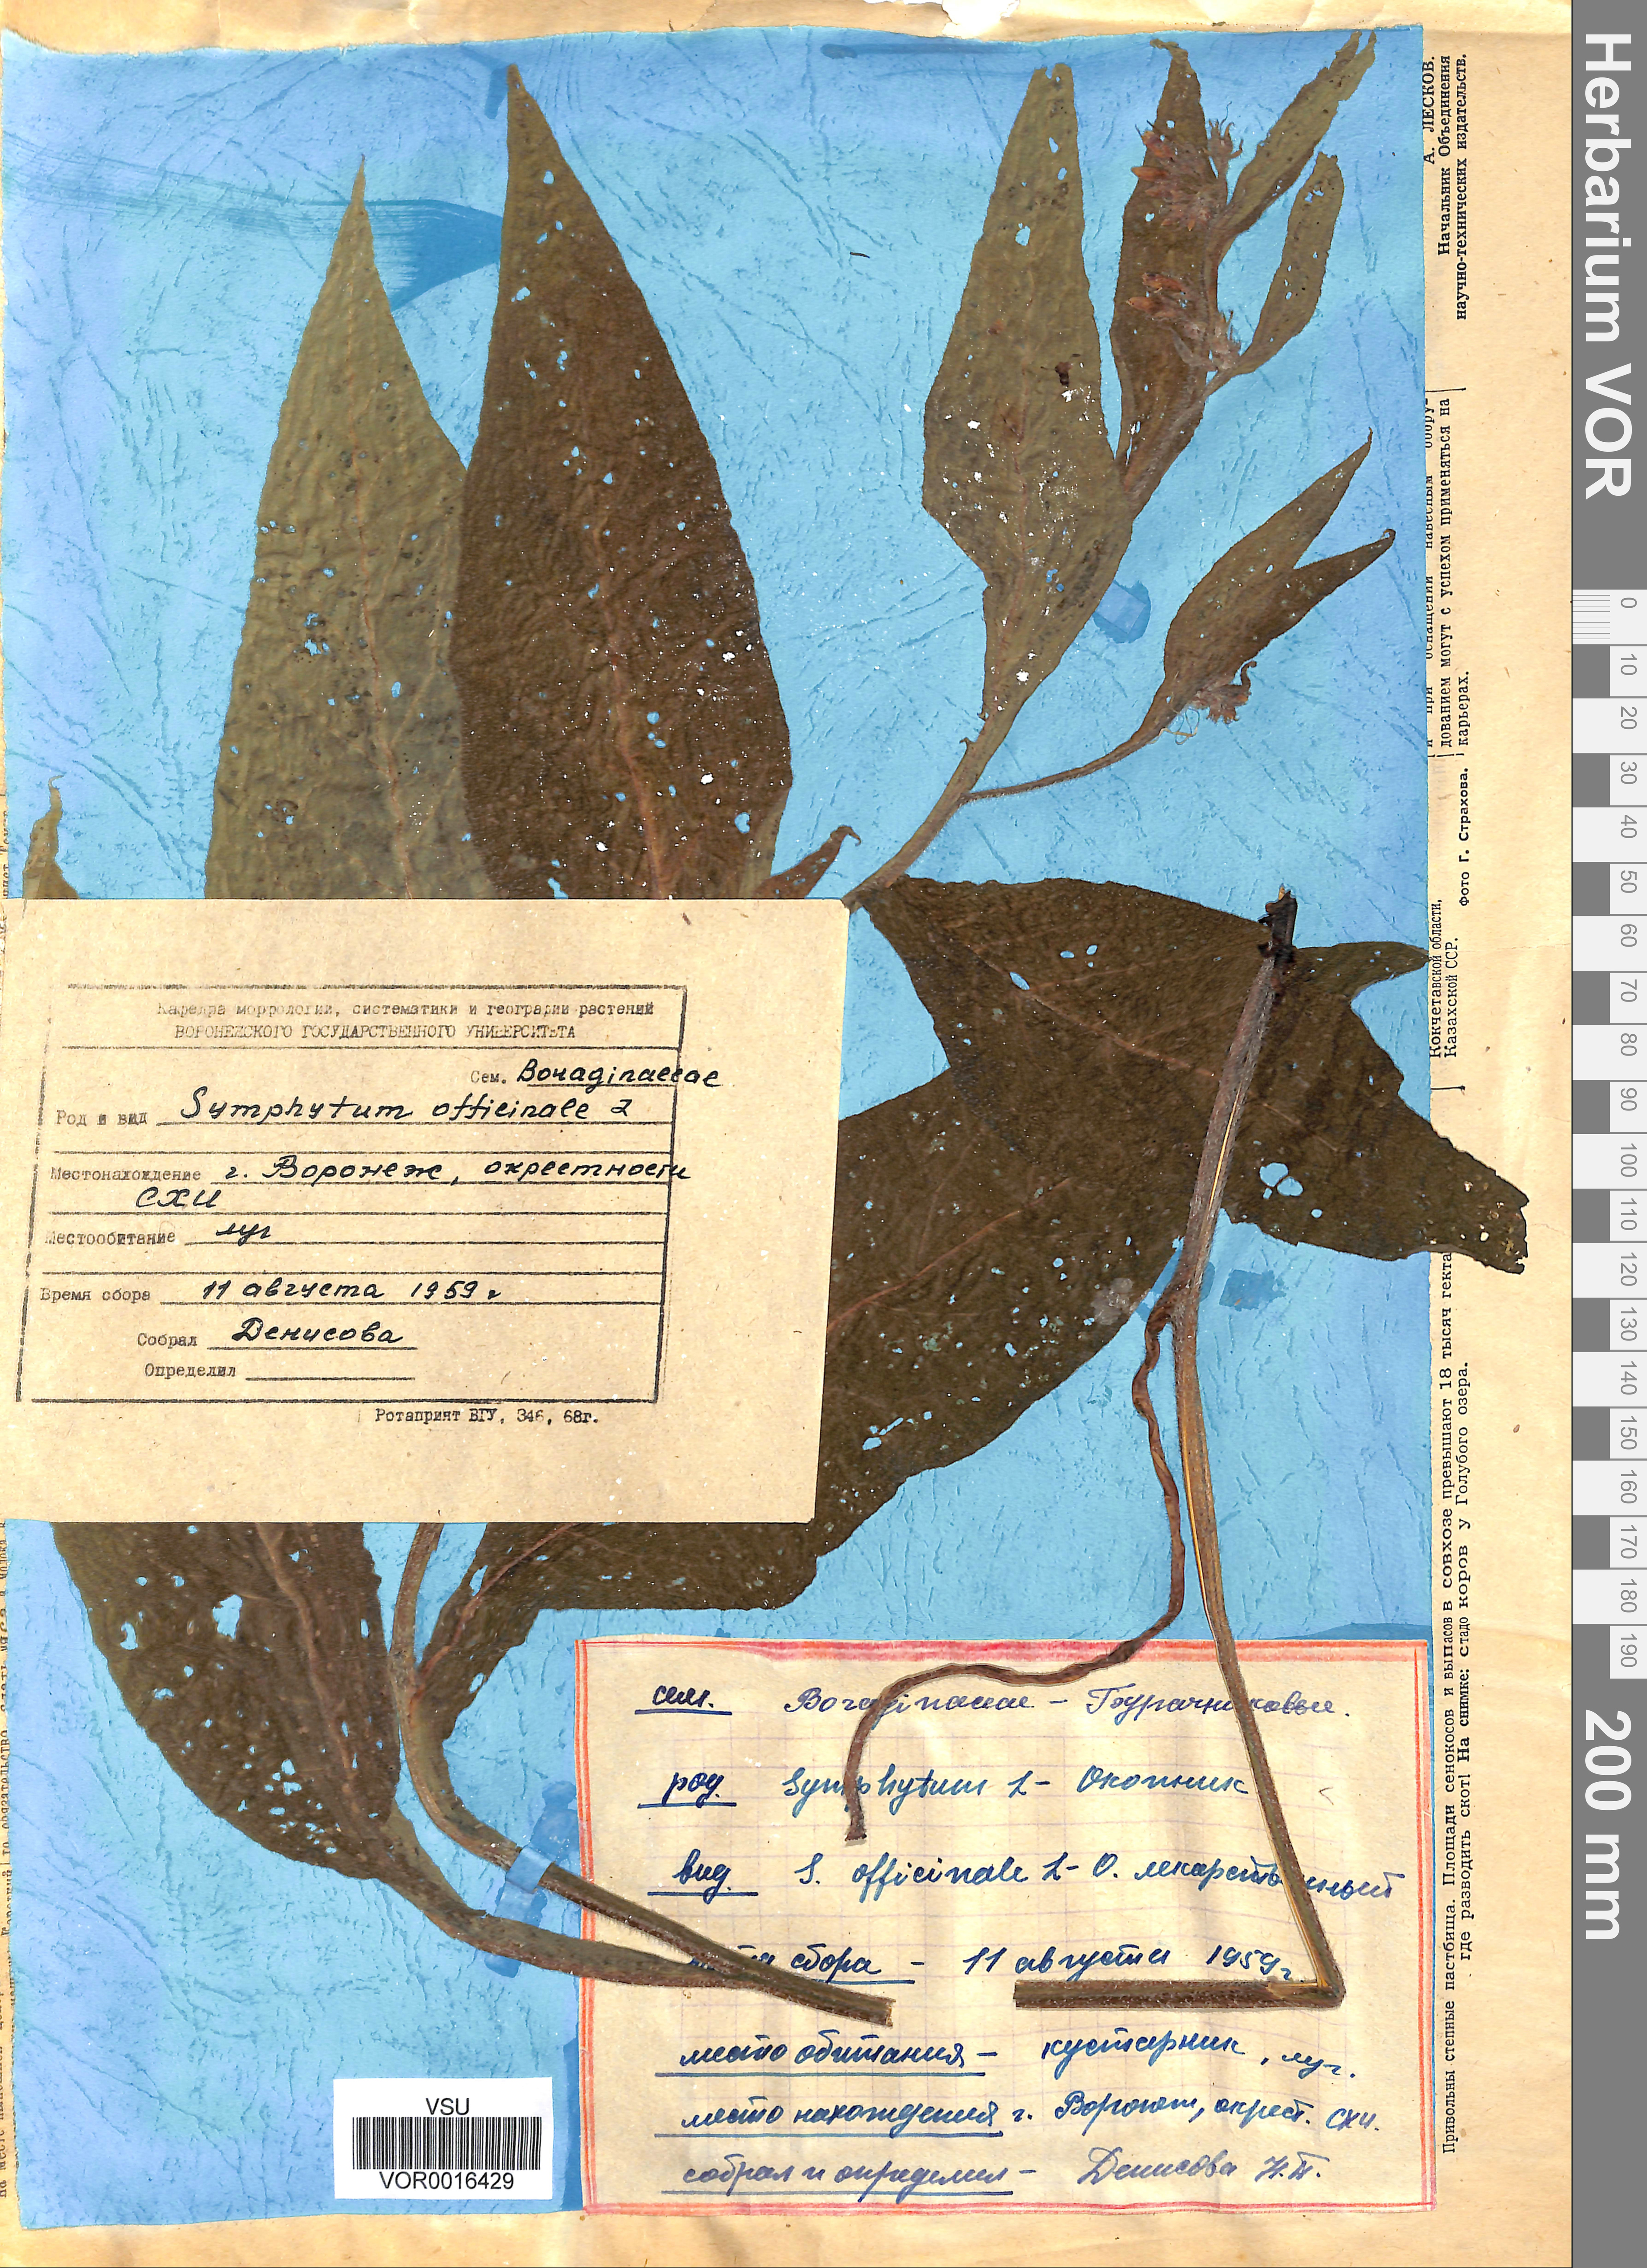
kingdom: Plantae
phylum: Tracheophyta
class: Magnoliopsida
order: Boraginales
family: Boraginaceae
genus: Symphytum
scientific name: Symphytum officinale
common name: Common comfrey
